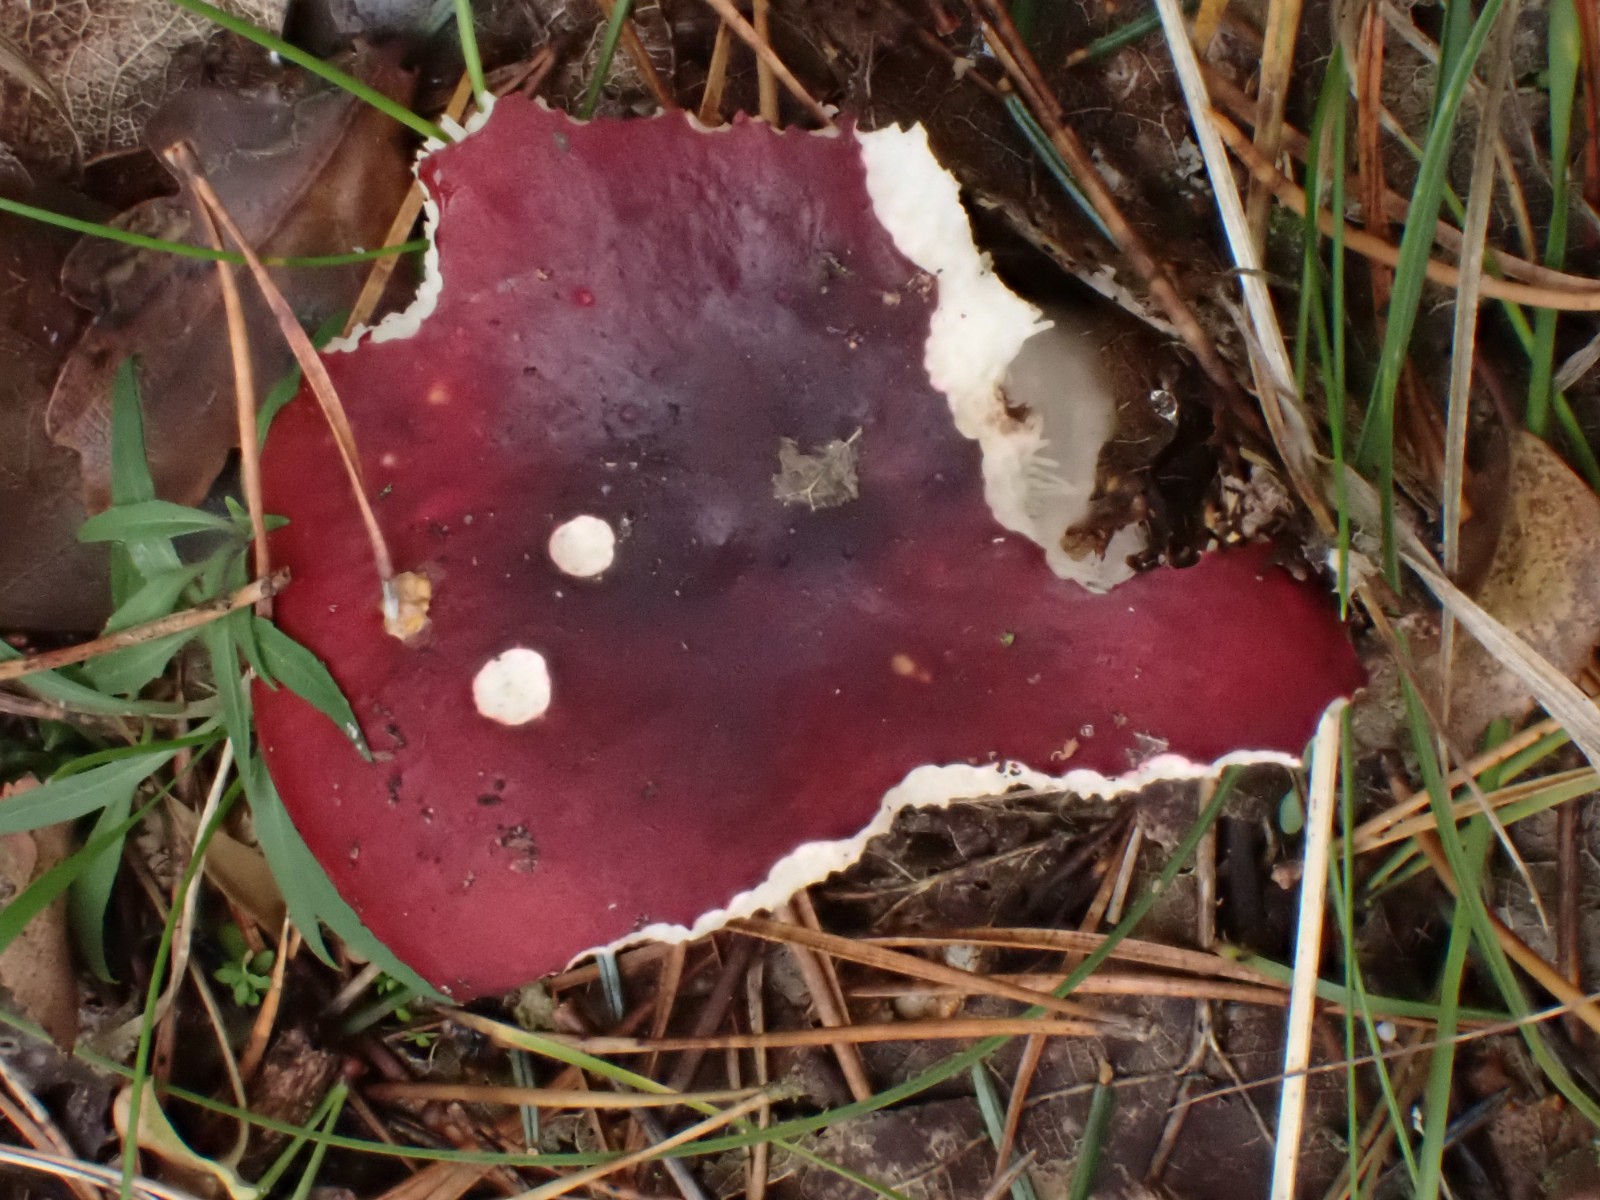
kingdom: Fungi
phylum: Basidiomycota
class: Agaricomycetes
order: Russulales
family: Russulaceae
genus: Russula
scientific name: Russula xerampelina
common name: hummer-skørhat
